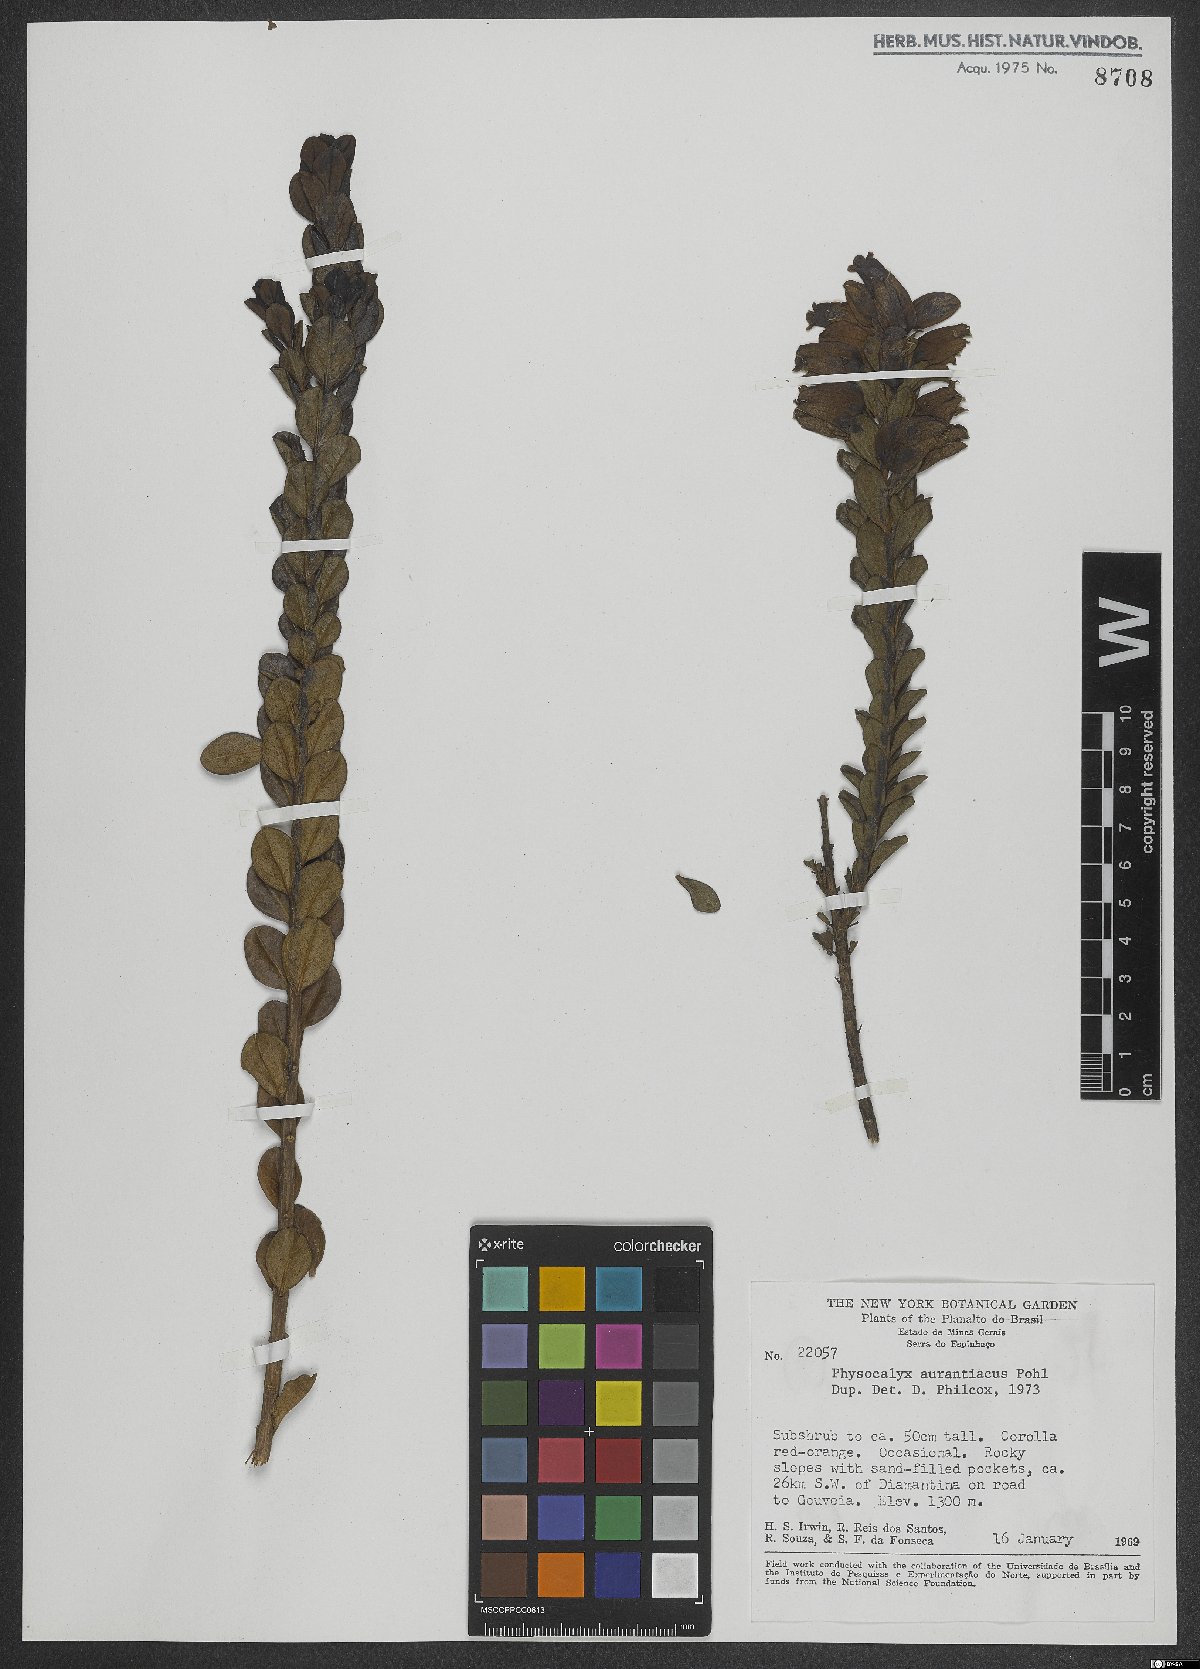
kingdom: Plantae
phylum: Tracheophyta
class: Magnoliopsida
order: Lamiales
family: Orobanchaceae
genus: Physocalyx
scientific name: Physocalyx aurantiacus
